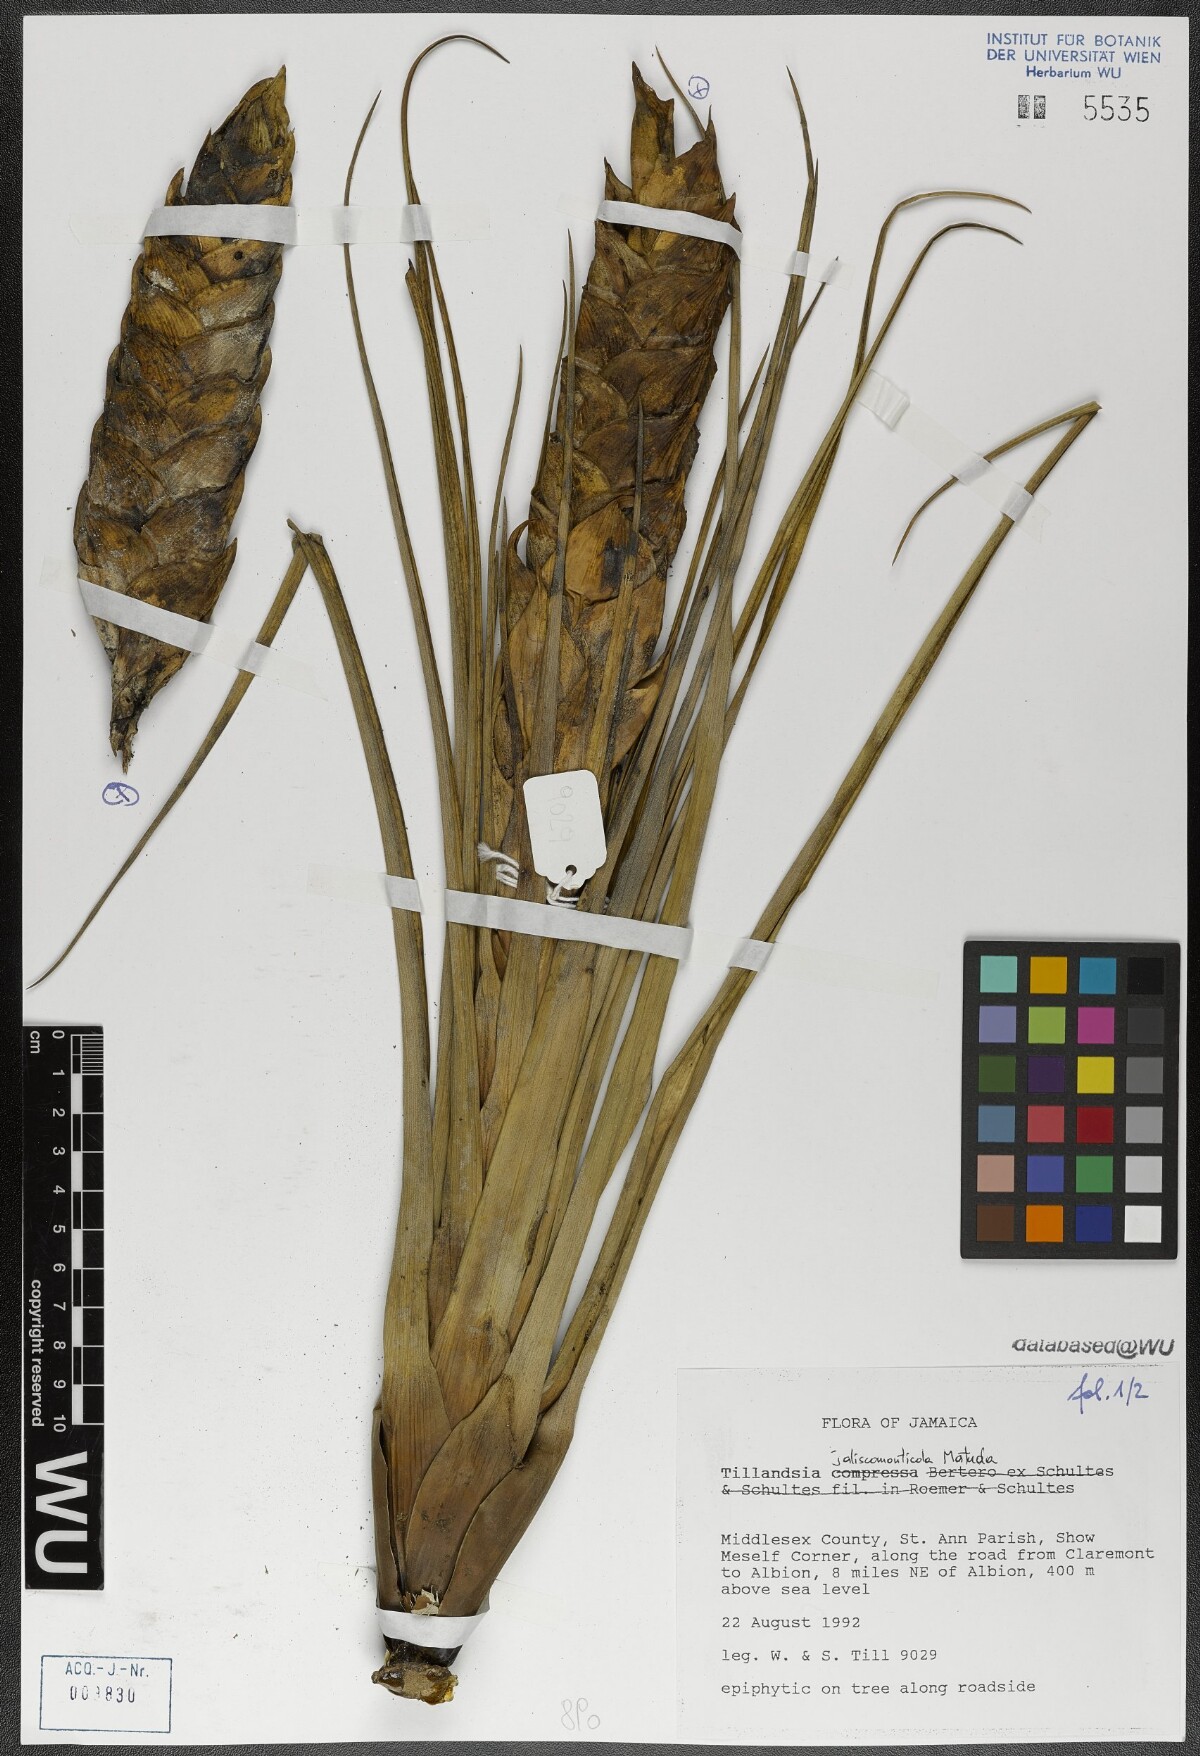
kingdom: Plantae
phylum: Tracheophyta
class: Liliopsida
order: Poales
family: Bromeliaceae
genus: Tillandsia
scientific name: Tillandsia compressa
